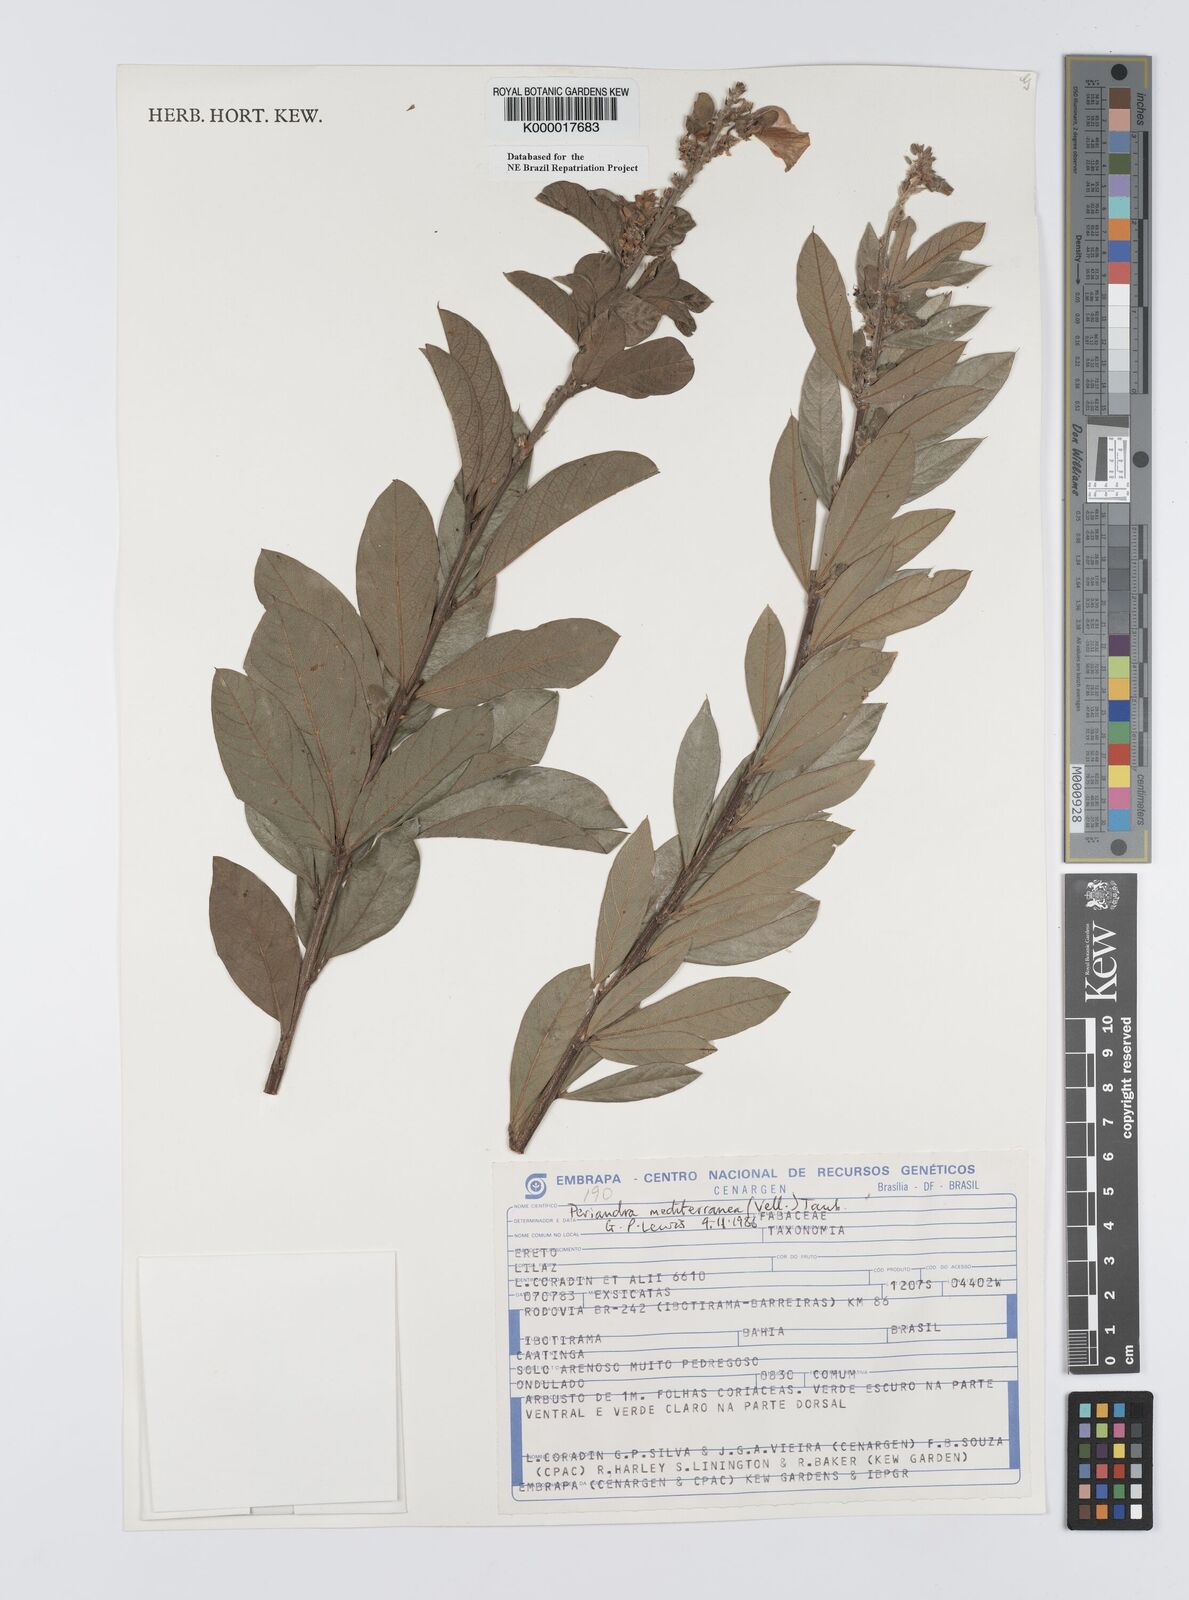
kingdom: Plantae
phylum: Tracheophyta
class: Magnoliopsida
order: Fabales
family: Fabaceae
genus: Periandra
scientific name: Periandra mediterranea
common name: Brazilian licorice
